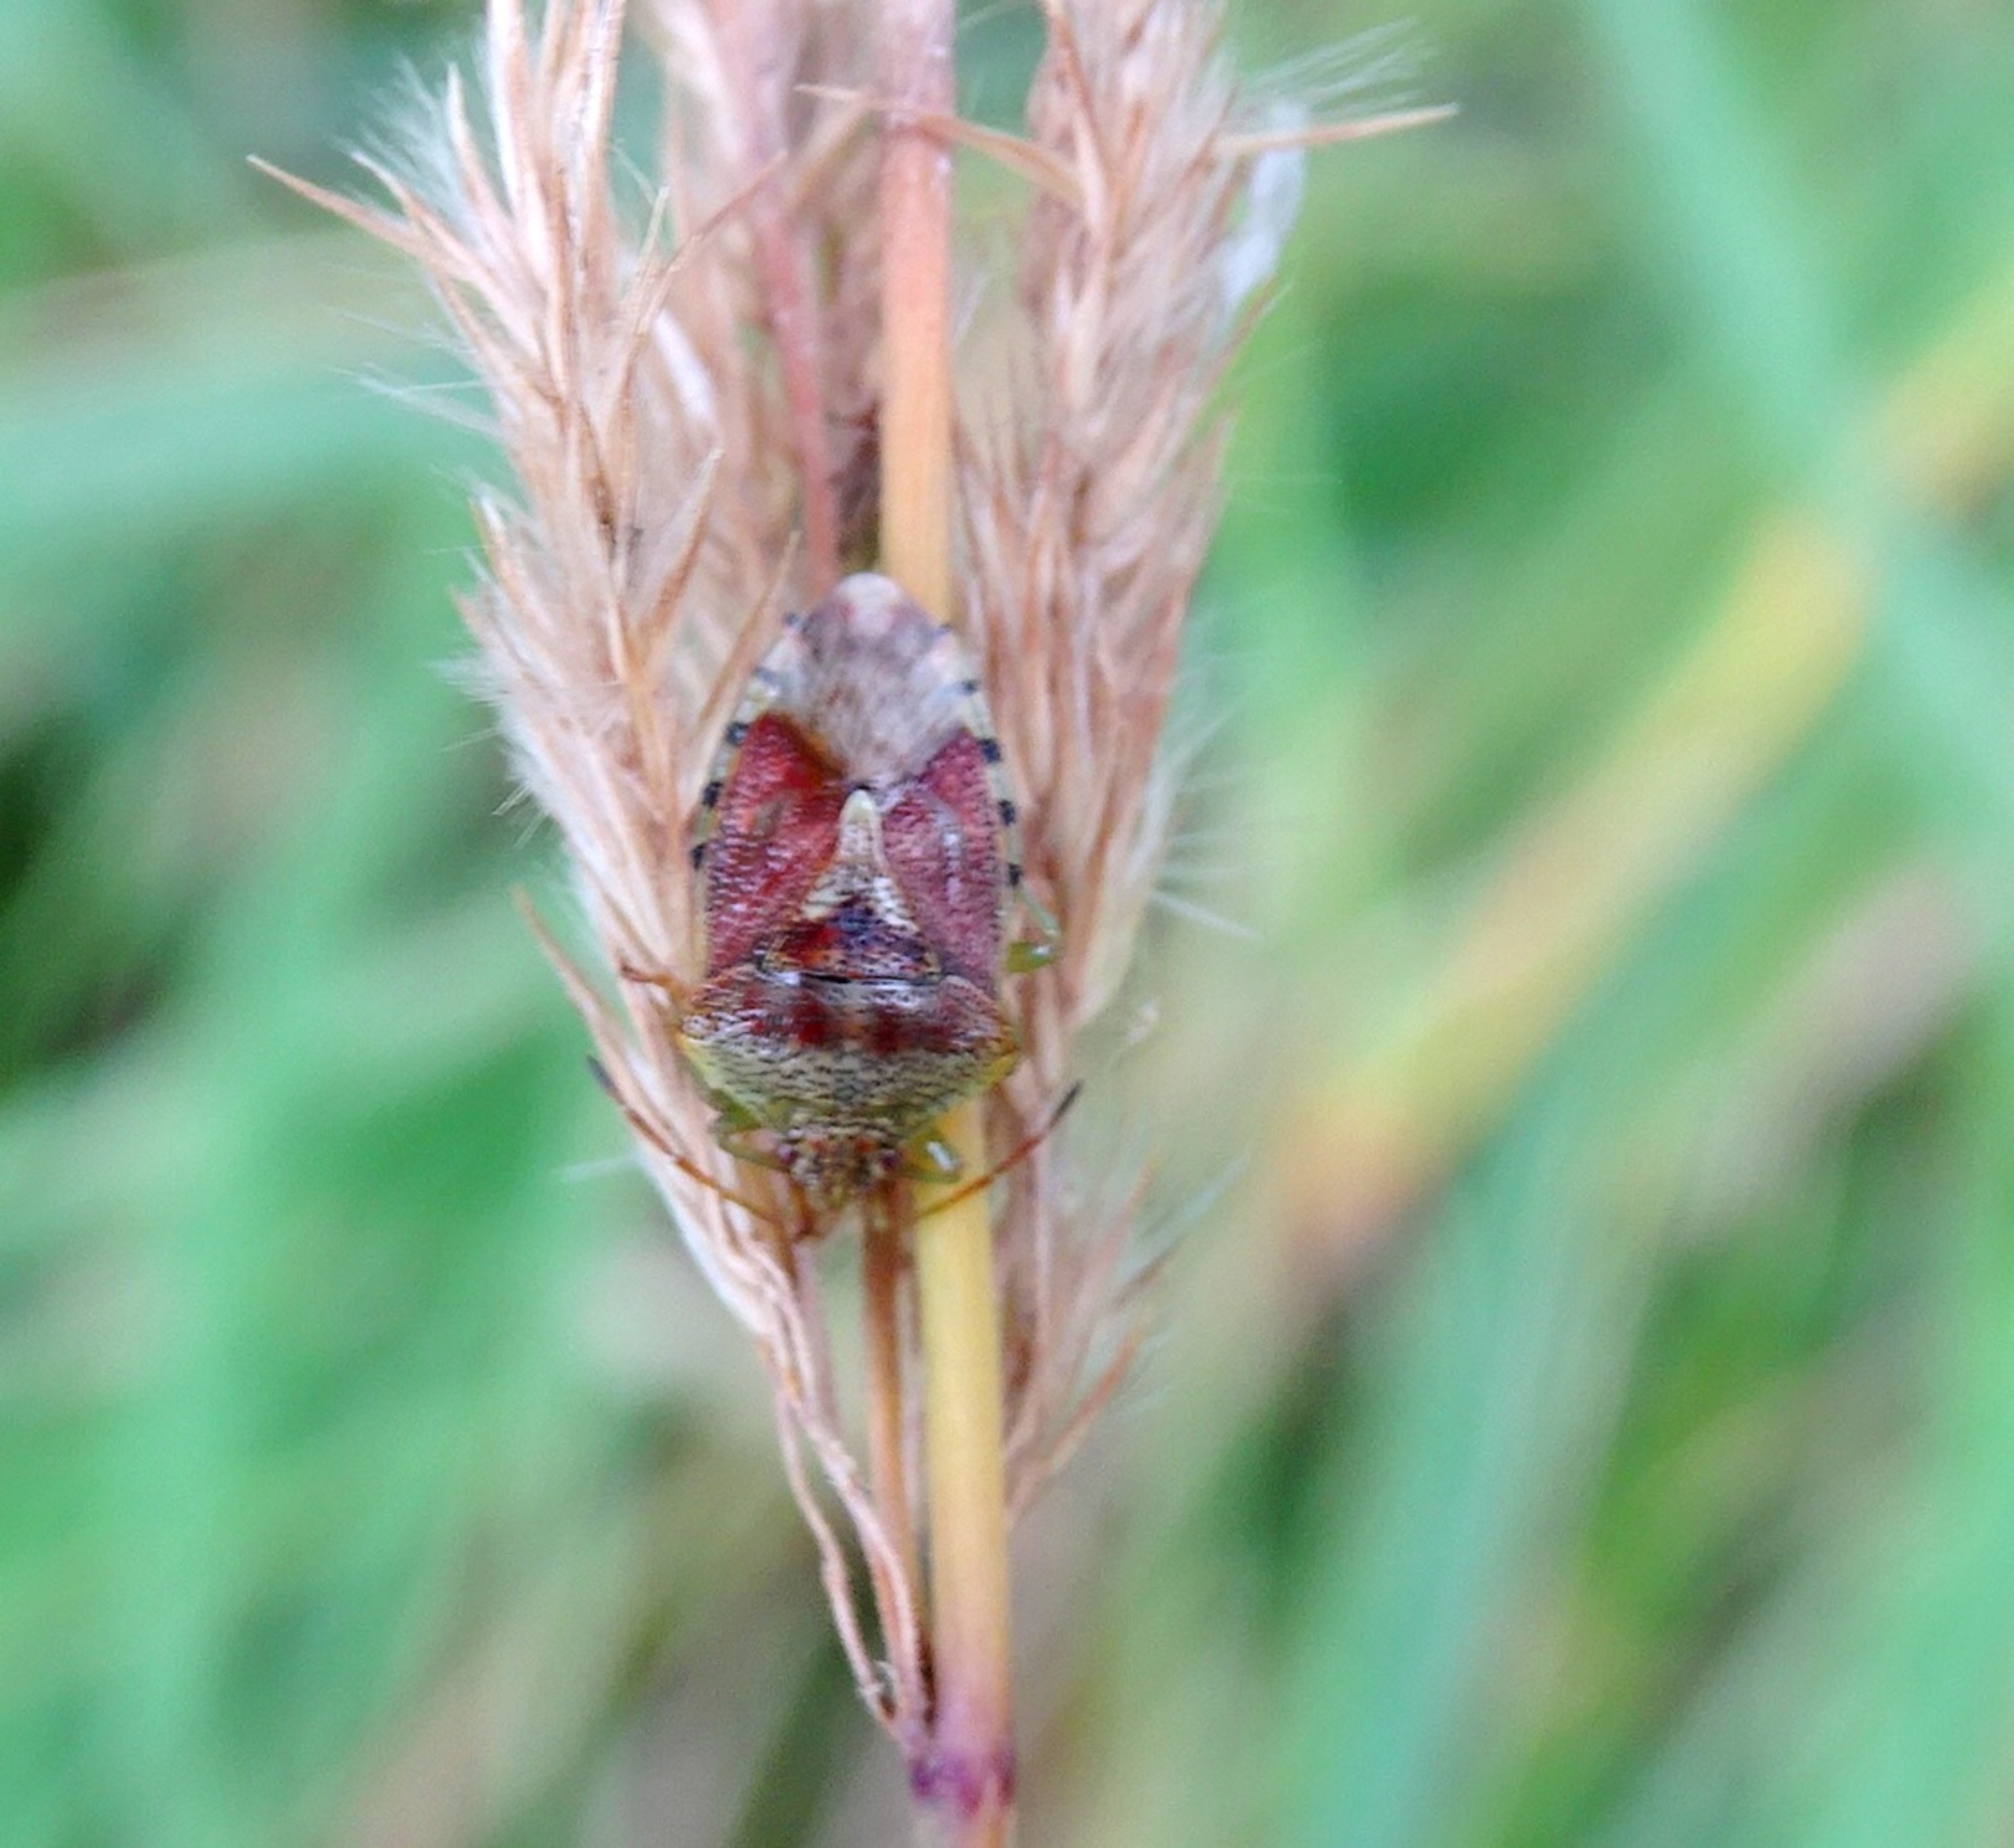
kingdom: Animalia
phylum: Arthropoda
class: Insecta
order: Hemiptera
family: Acanthosomatidae
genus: Elasmucha
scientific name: Elasmucha grisea
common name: Almindelig birketæge
